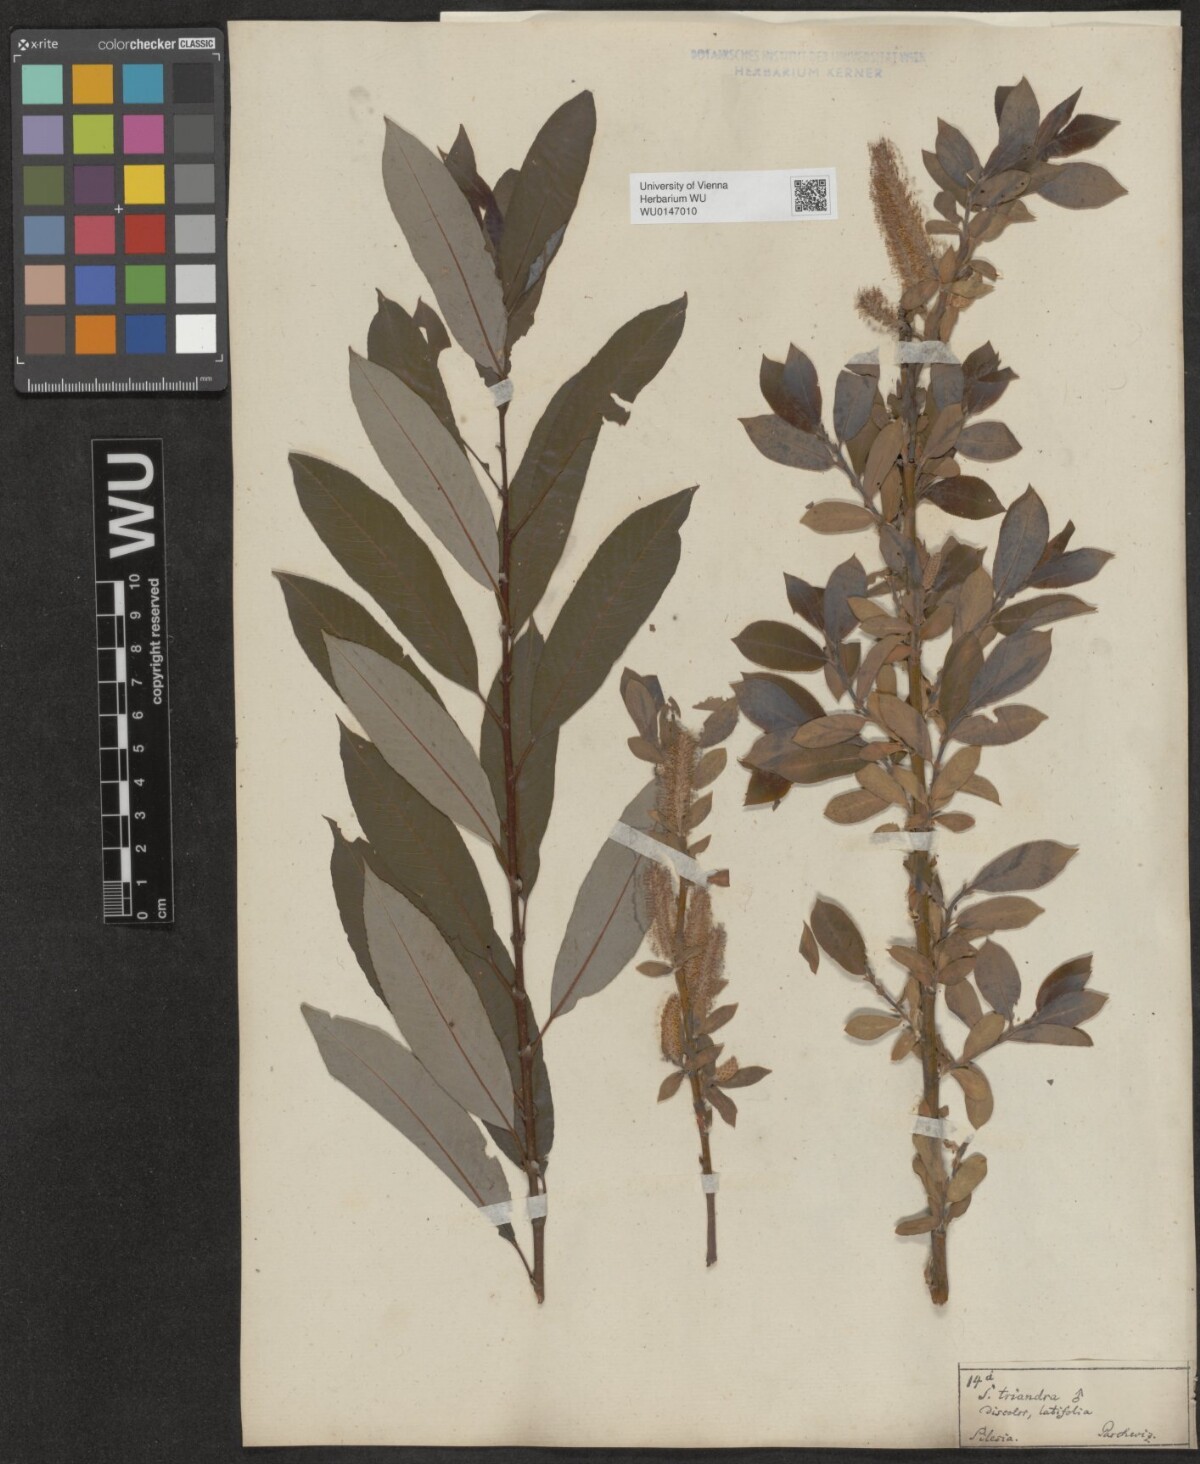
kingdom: Plantae
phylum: Tracheophyta
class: Magnoliopsida
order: Malpighiales
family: Salicaceae
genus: Salix
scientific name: Salix triandra
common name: Almond willow
